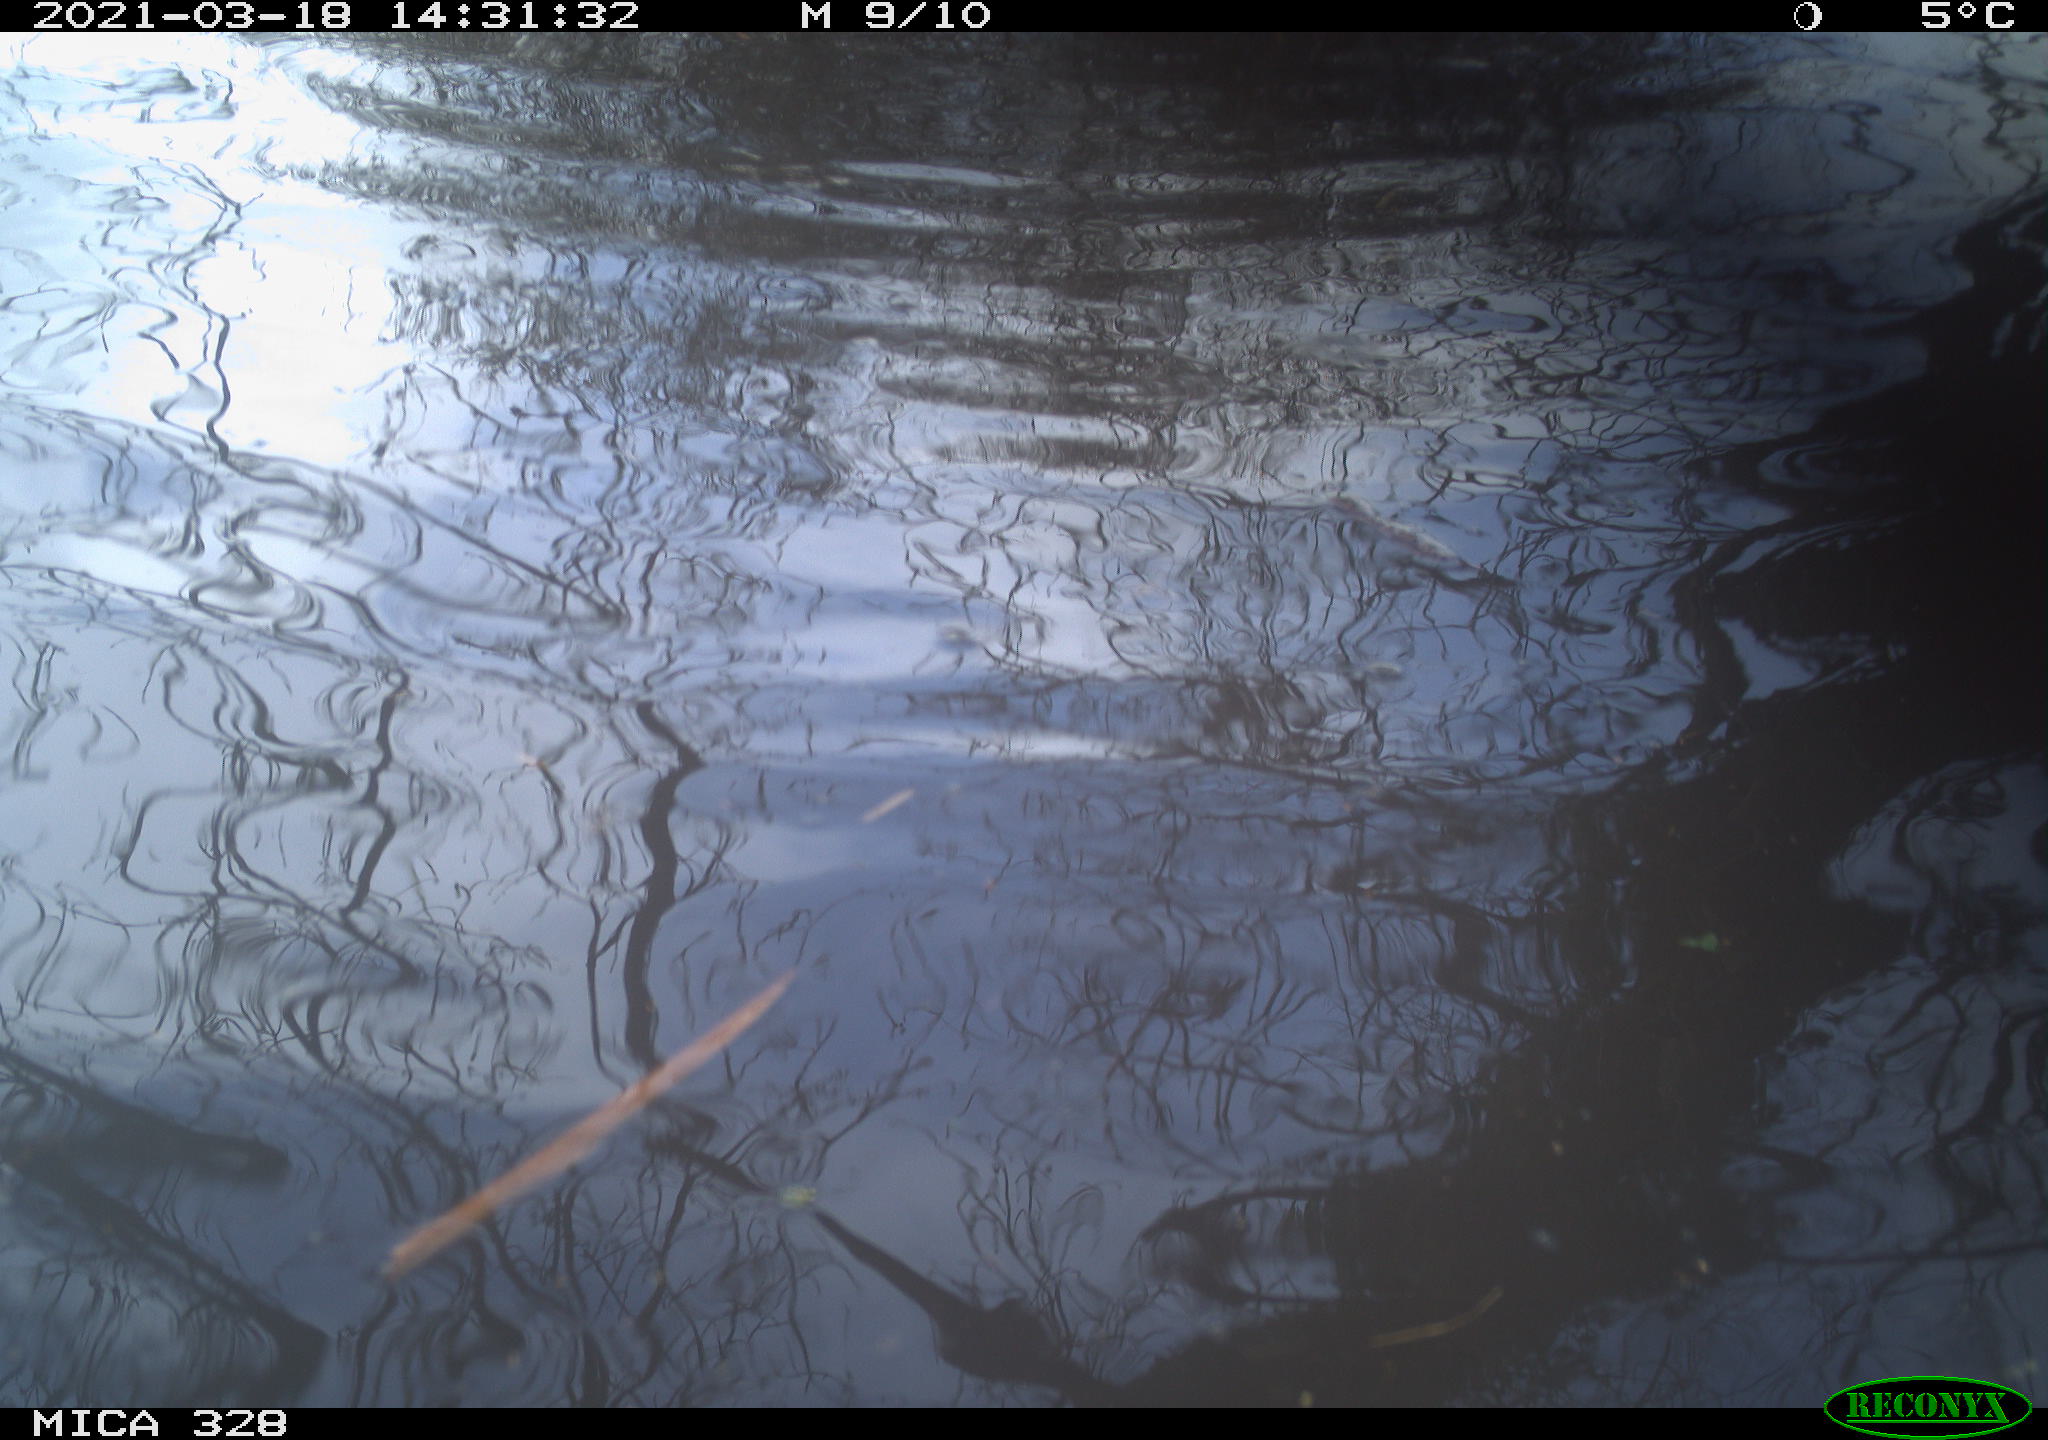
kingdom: Animalia
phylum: Chordata
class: Mammalia
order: Rodentia
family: Cricetidae
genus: Ondatra
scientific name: Ondatra zibethicus
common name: Muskrat
